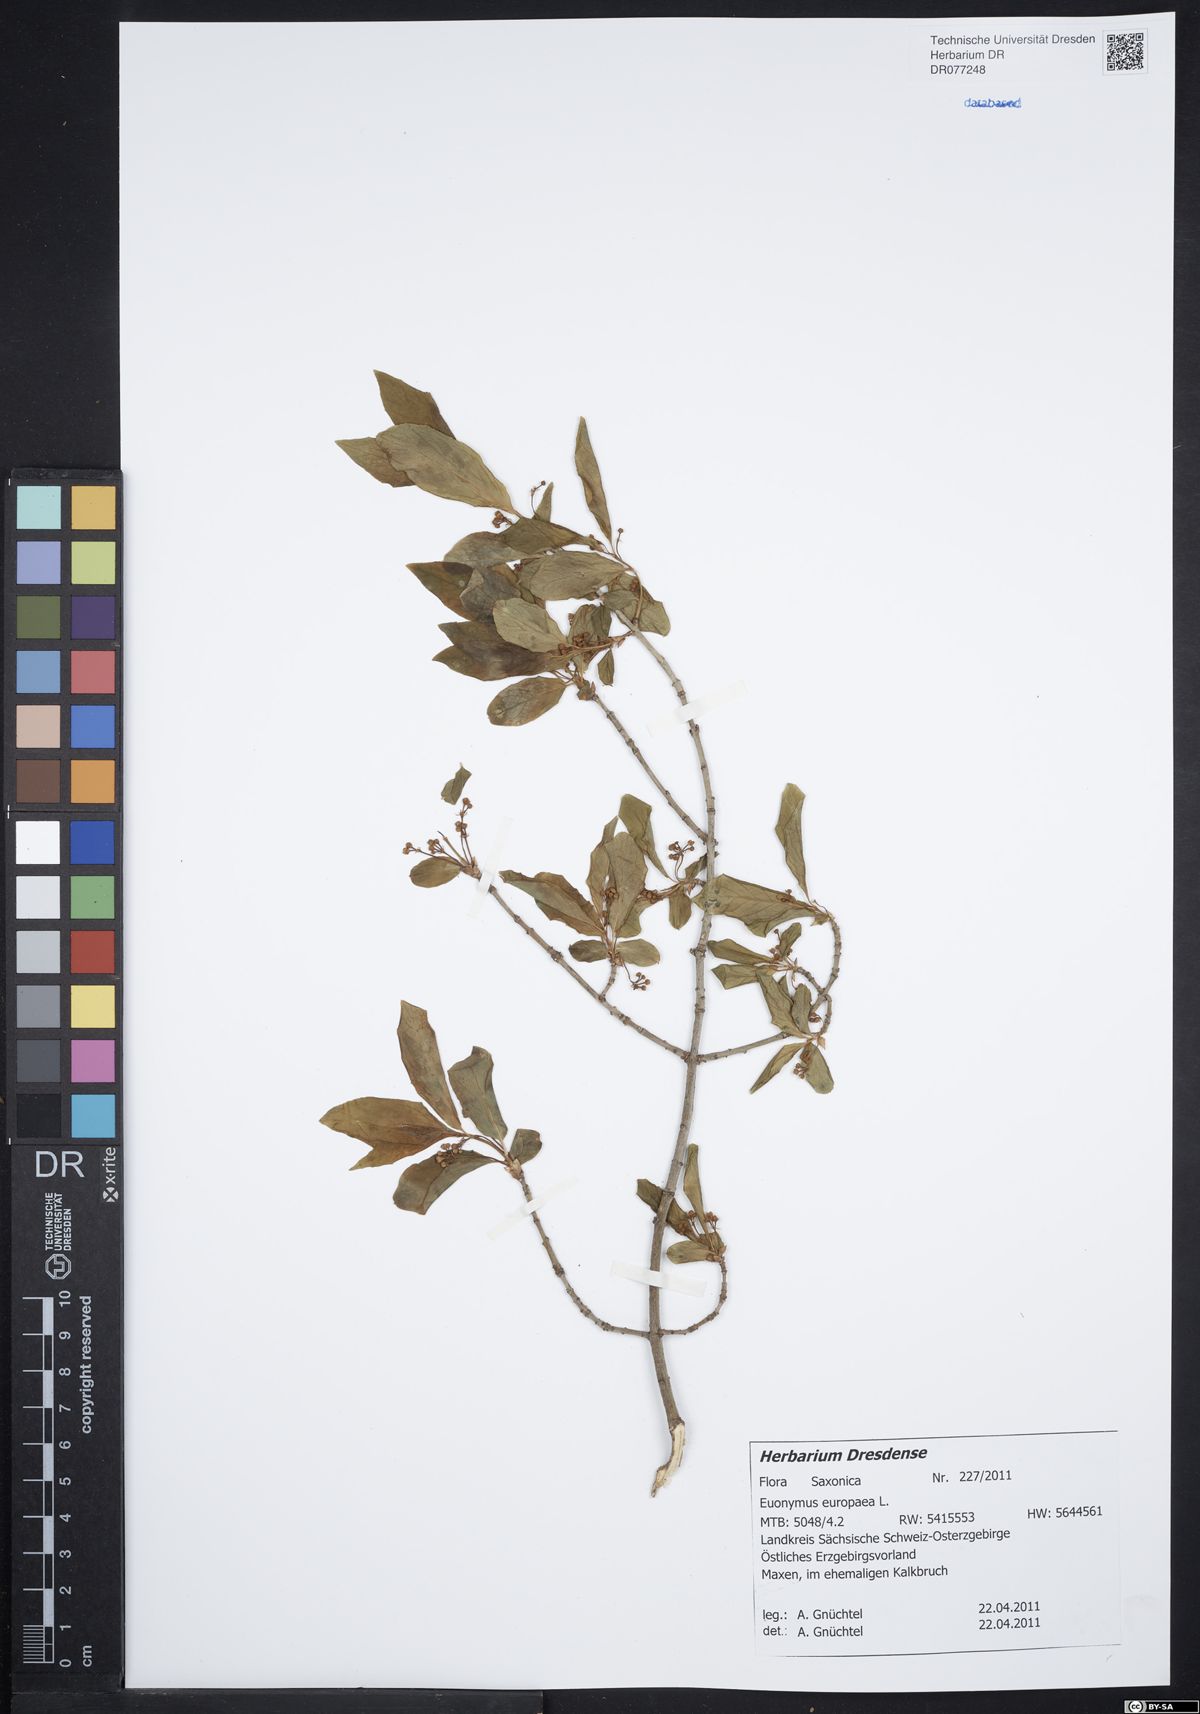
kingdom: Plantae
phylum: Tracheophyta
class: Magnoliopsida
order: Celastrales
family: Celastraceae
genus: Euonymus
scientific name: Euonymus europaeus
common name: Spindle
